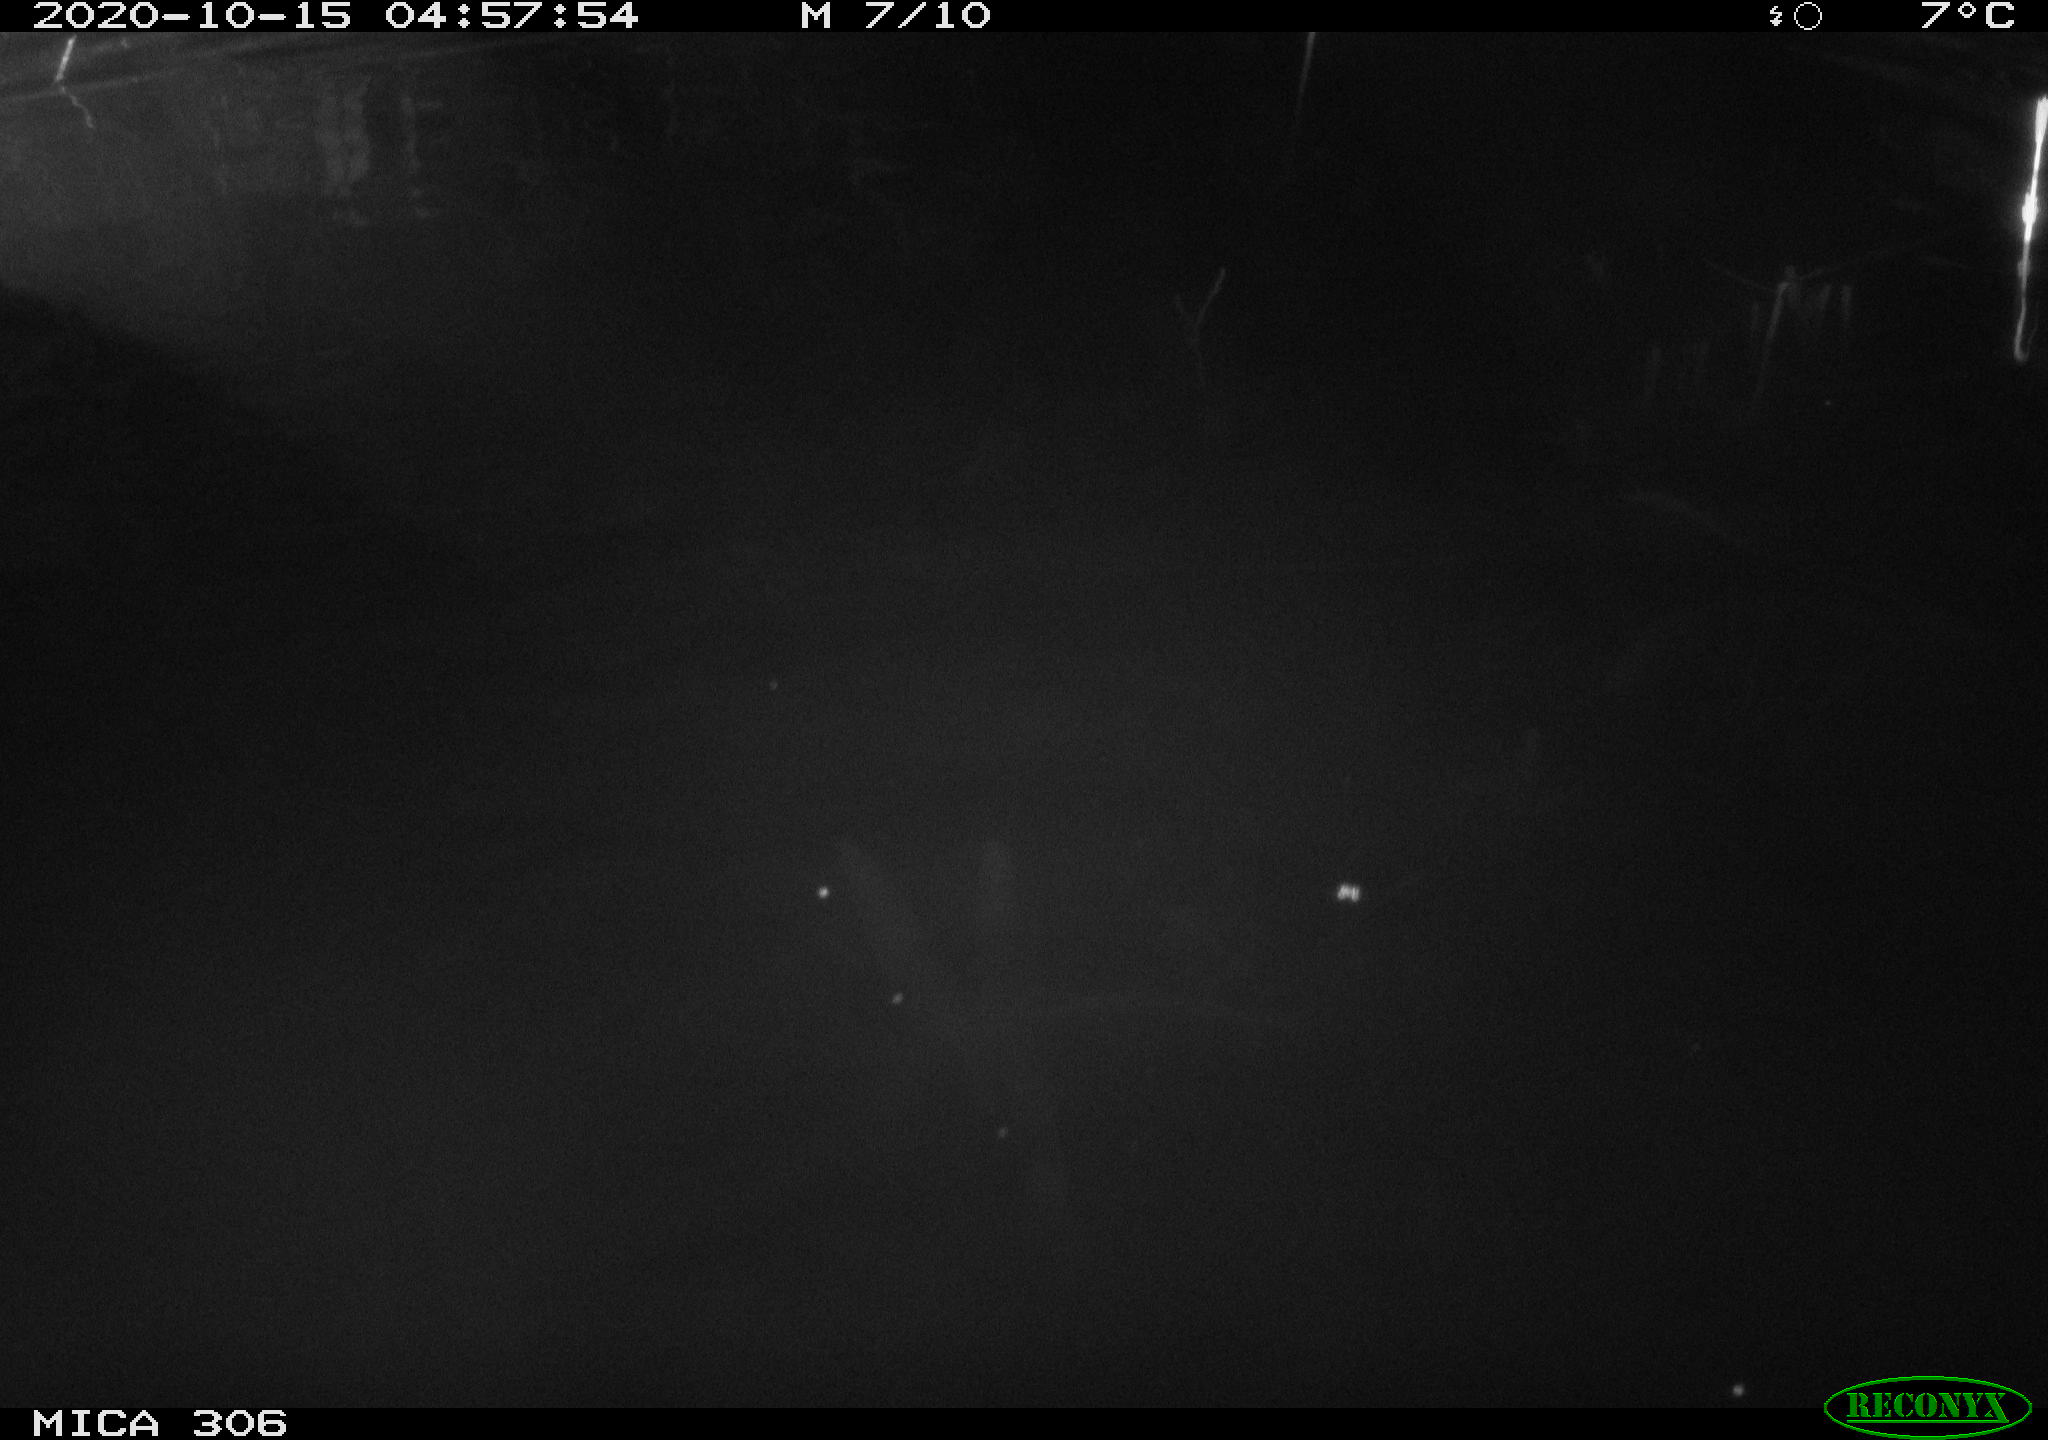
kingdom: Animalia
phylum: Chordata
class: Mammalia
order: Rodentia
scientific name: Rodentia
